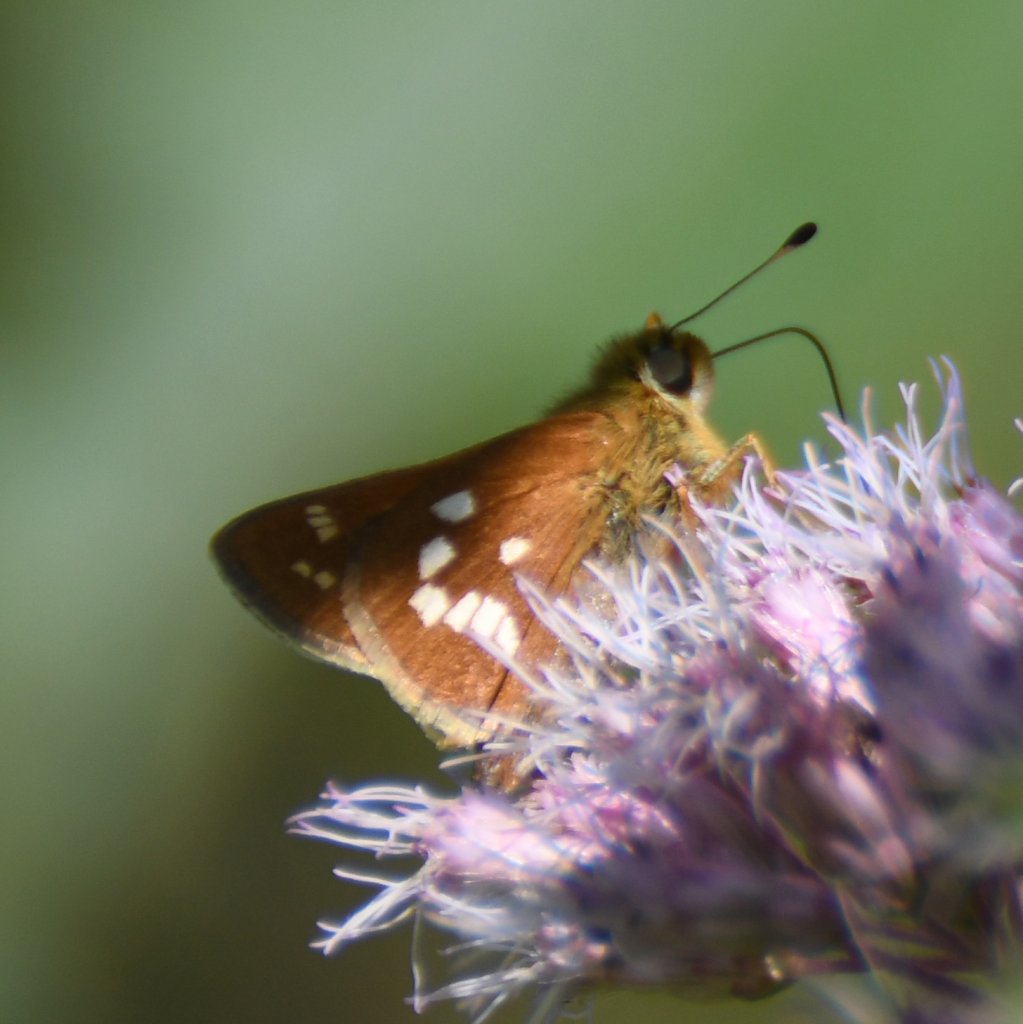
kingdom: Animalia
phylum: Arthropoda
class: Insecta
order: Lepidoptera
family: Hesperiidae
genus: Hesperia
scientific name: Hesperia leonardus
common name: Leonard's Skipper
